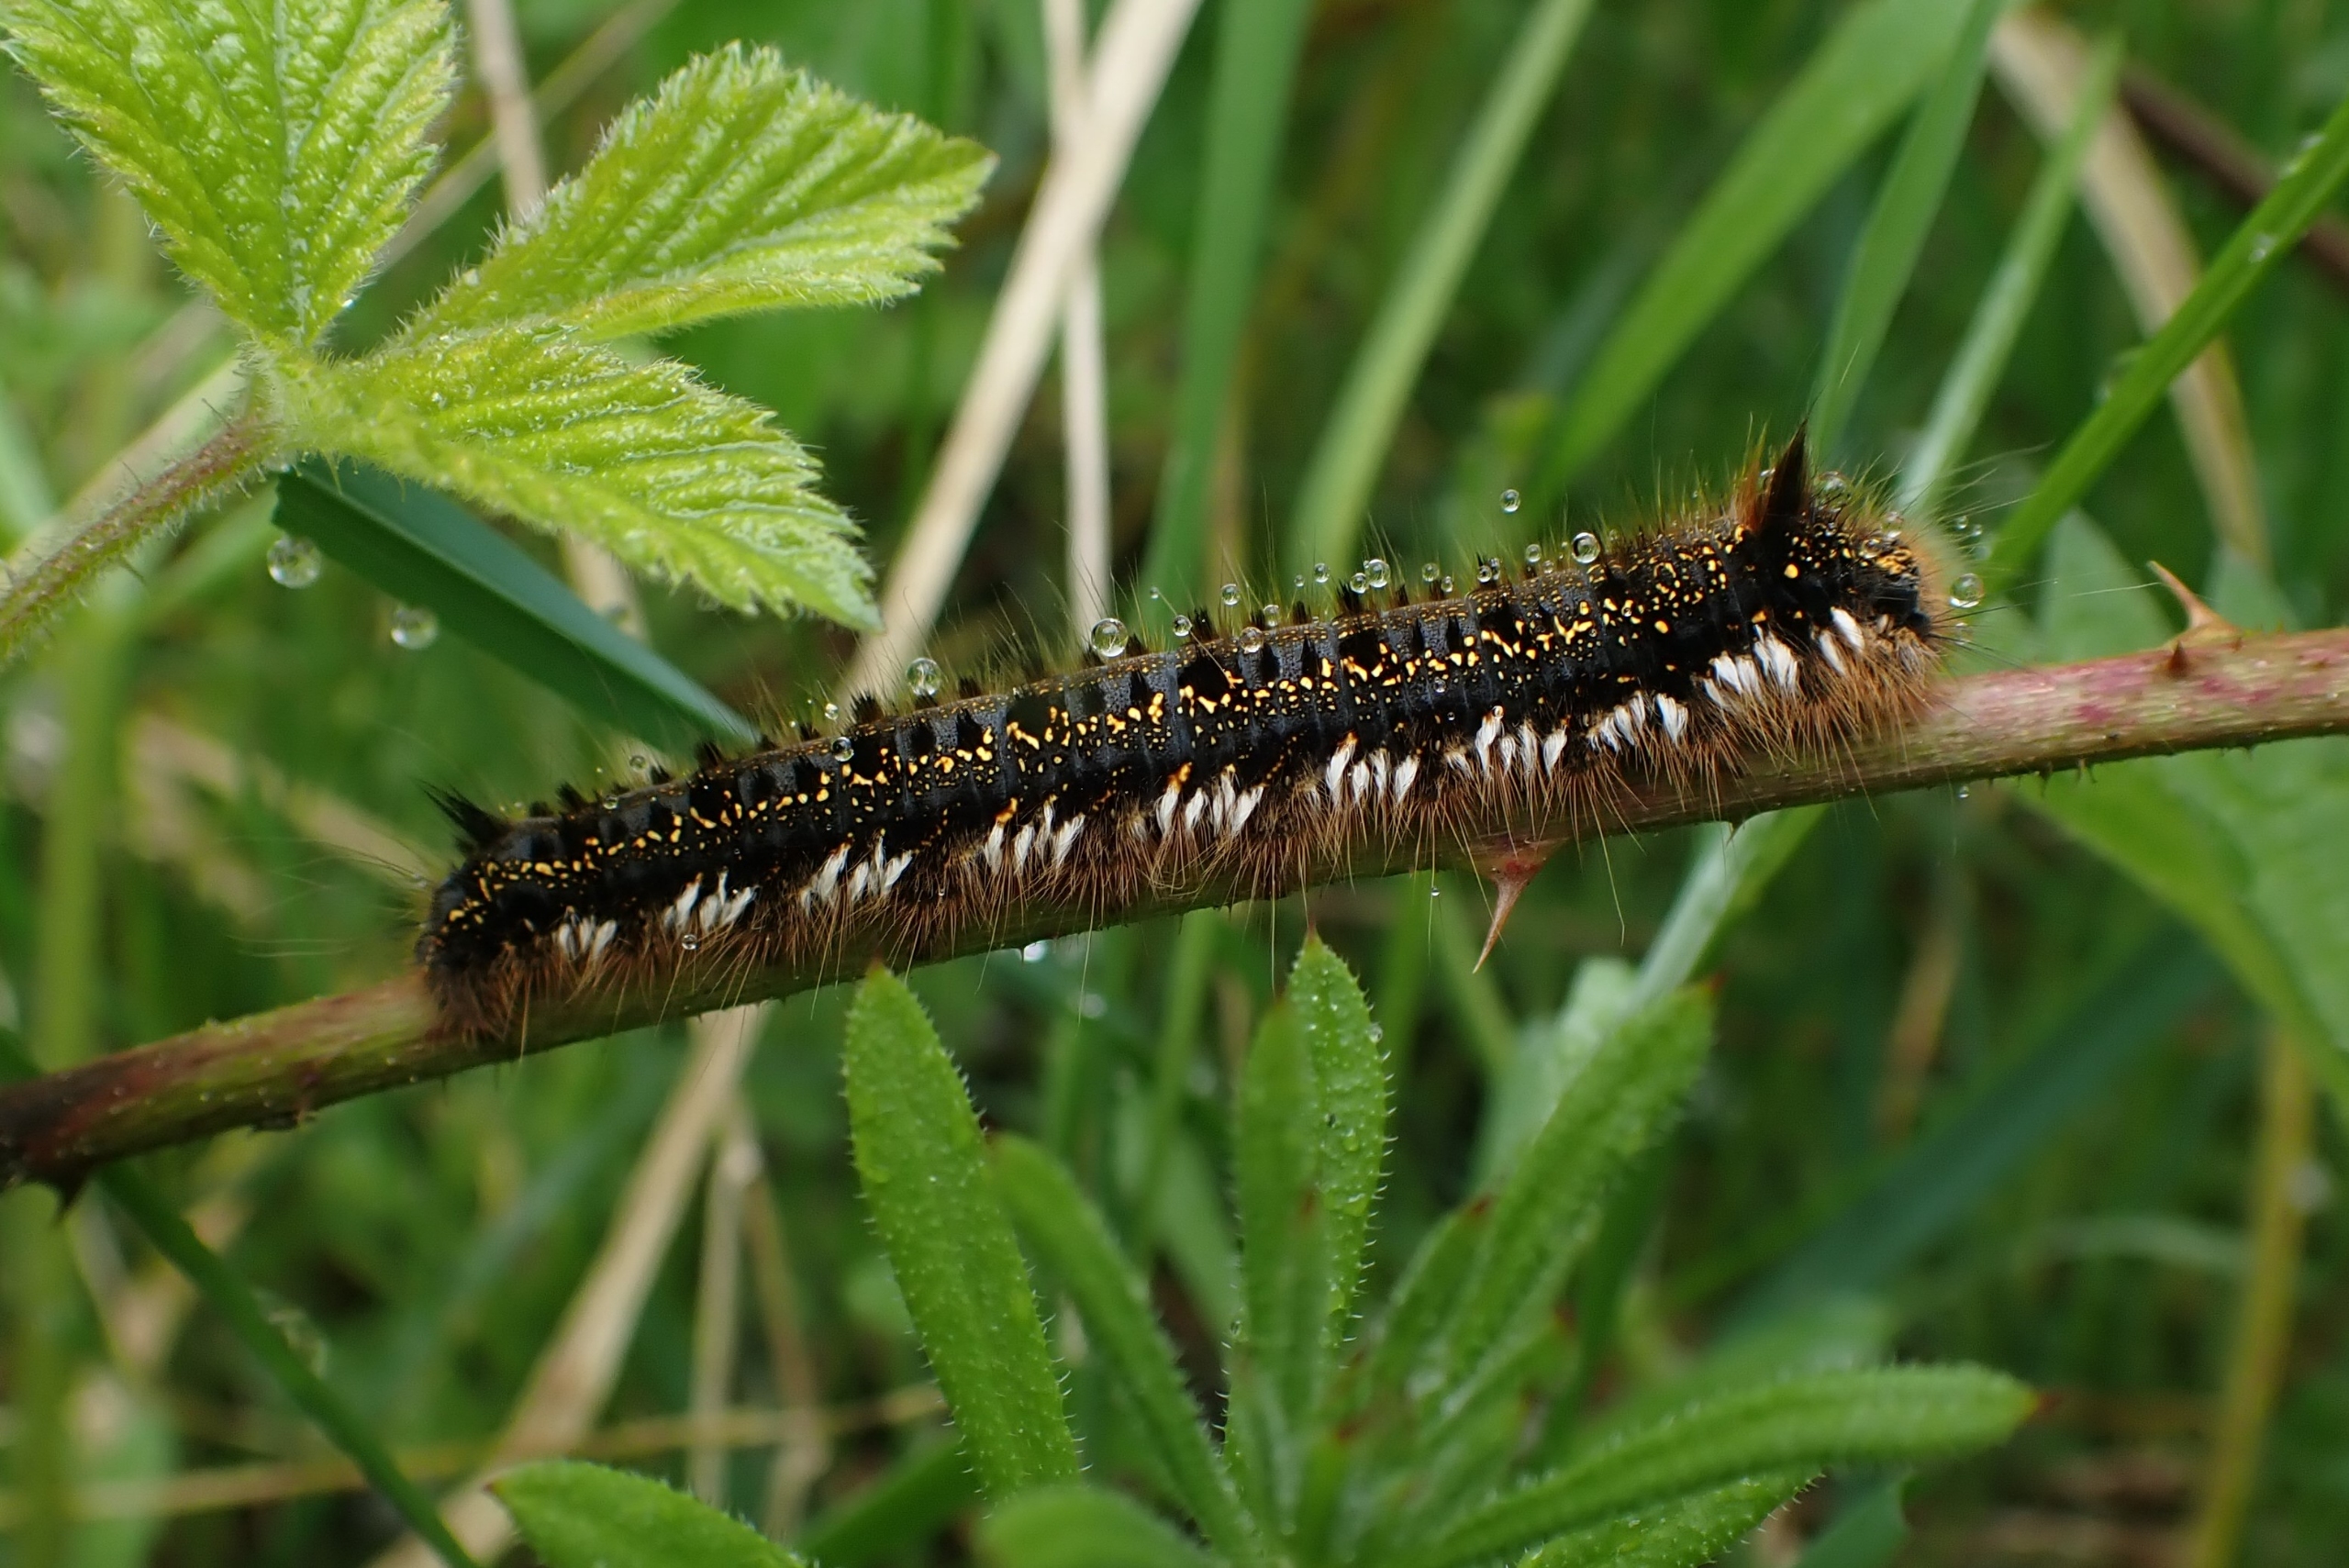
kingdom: Animalia
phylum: Arthropoda
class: Insecta
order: Lepidoptera
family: Lasiocampidae
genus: Euthrix
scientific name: Euthrix potatoria
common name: Græsspinder
